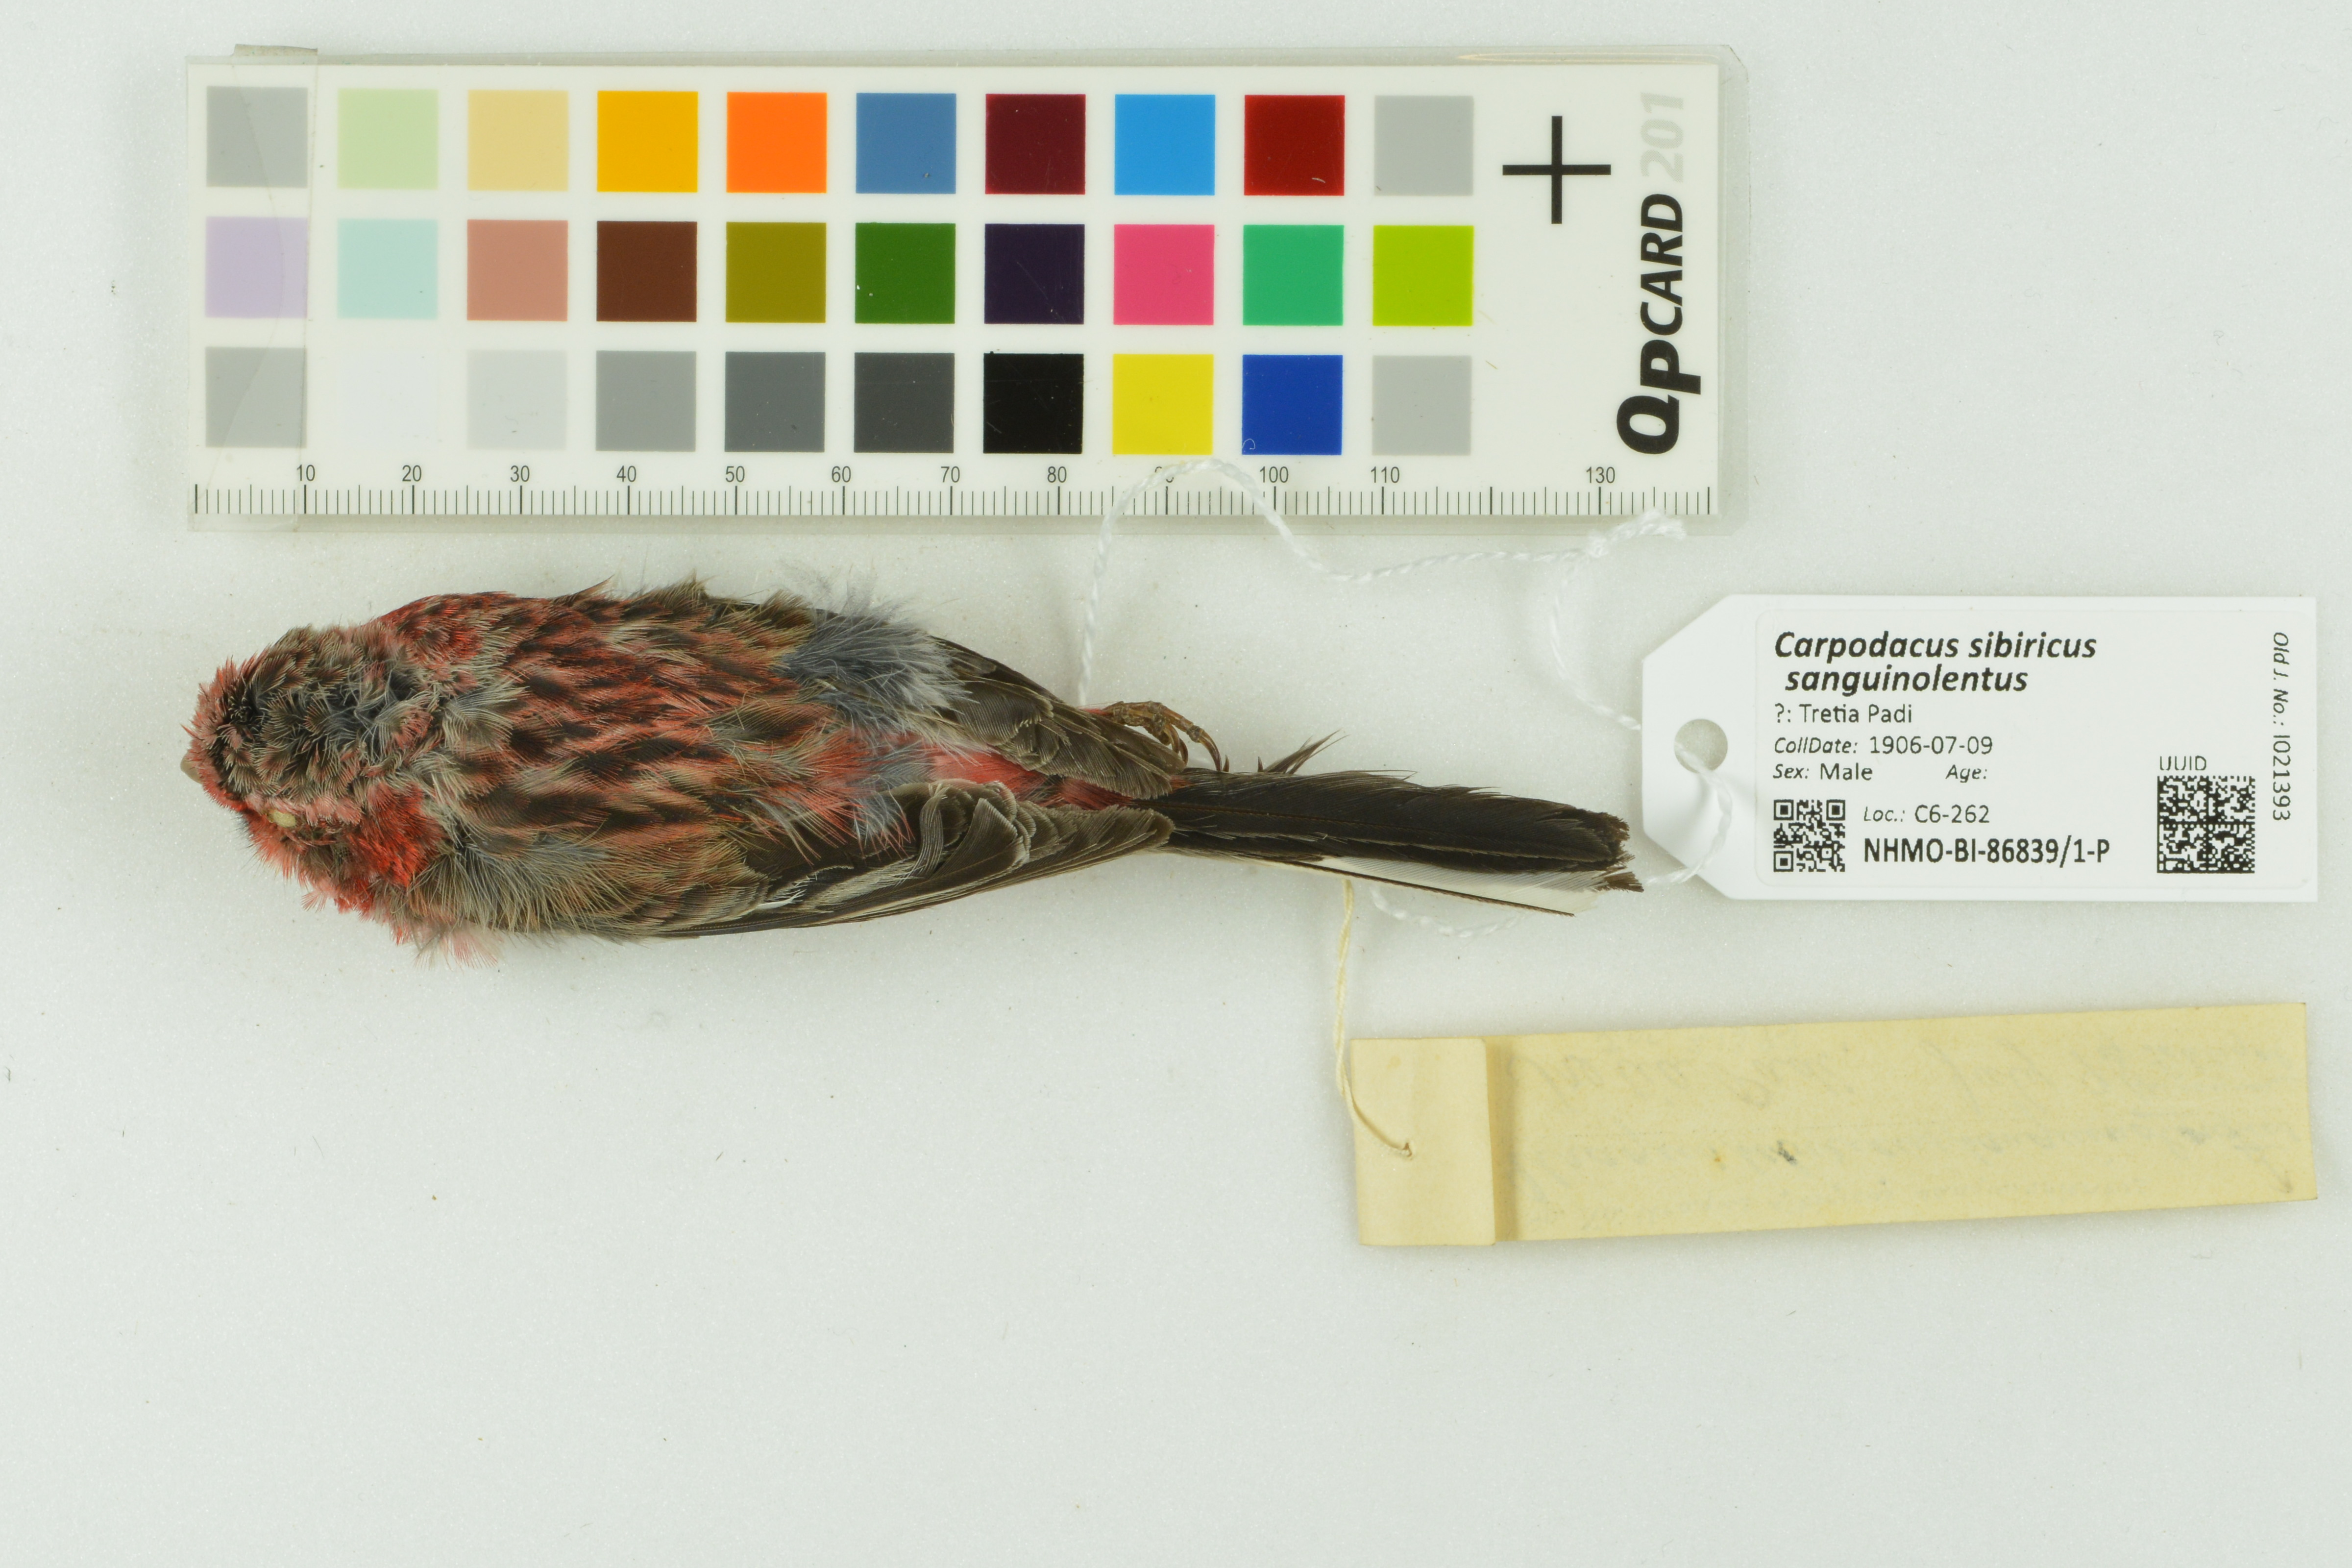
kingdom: Animalia
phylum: Chordata
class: Aves
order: Passeriformes
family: Fringillidae
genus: Carpodacus
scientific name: Carpodacus sibiricus
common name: Long-tailed rosefinch
